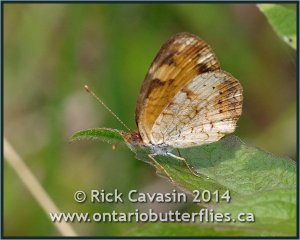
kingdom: Animalia
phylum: Arthropoda
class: Insecta
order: Lepidoptera
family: Nymphalidae
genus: Phyciodes
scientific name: Phyciodes tharos
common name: Northern Crescent
